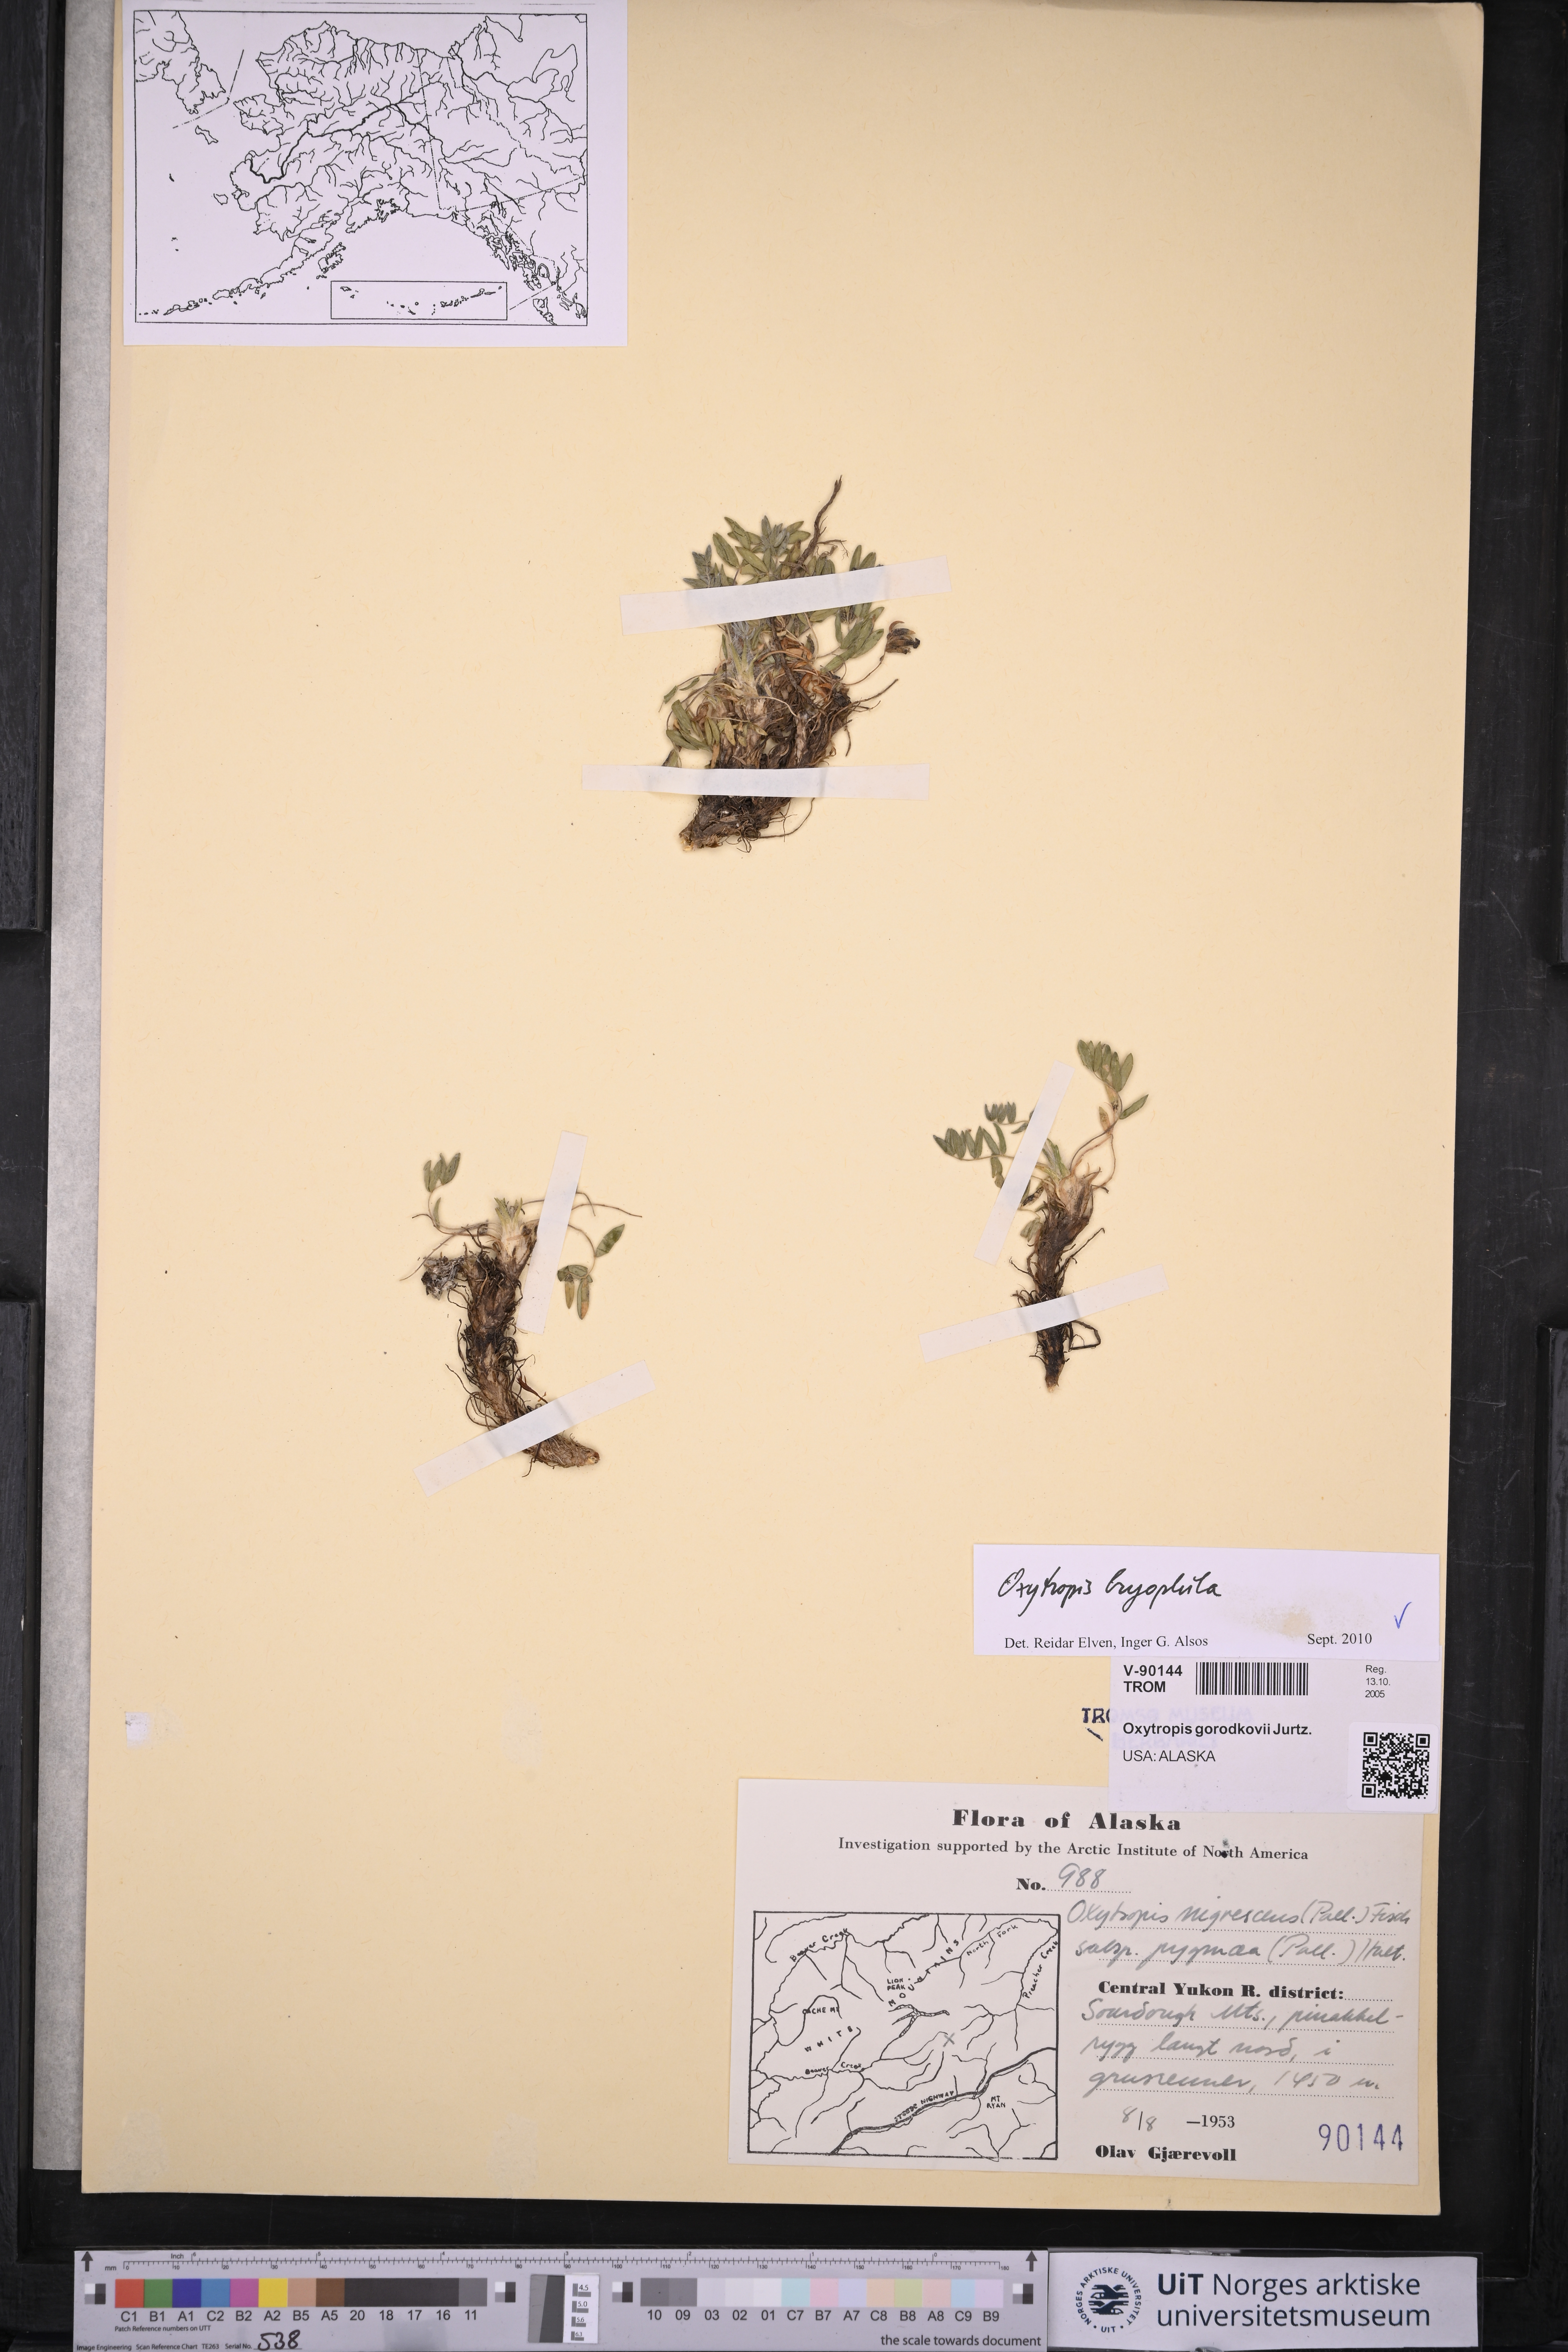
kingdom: Plantae
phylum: Tracheophyta
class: Magnoliopsida
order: Fabales
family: Fabaceae
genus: Oxytropis
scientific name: Oxytropis bryophila
